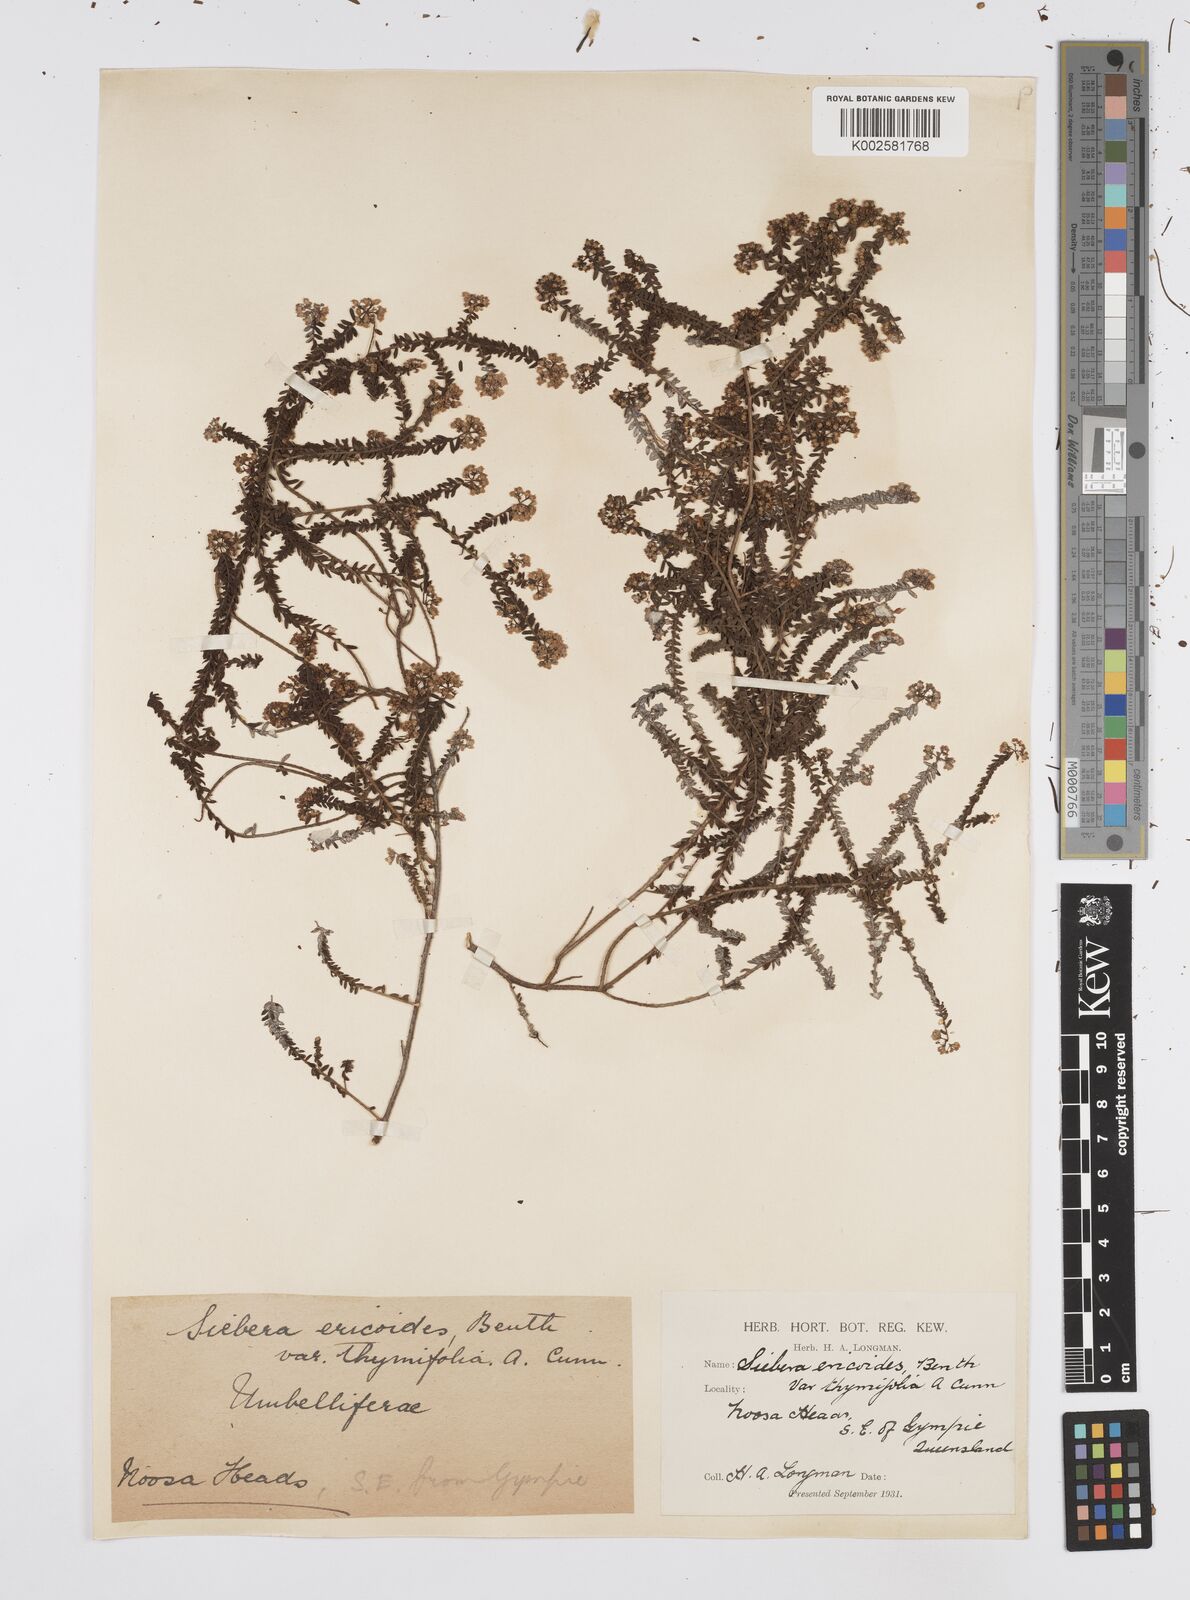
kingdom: Plantae
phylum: Tracheophyta
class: Magnoliopsida
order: Apiales
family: Apiaceae
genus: Platysace
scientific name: Platysace ericoides
